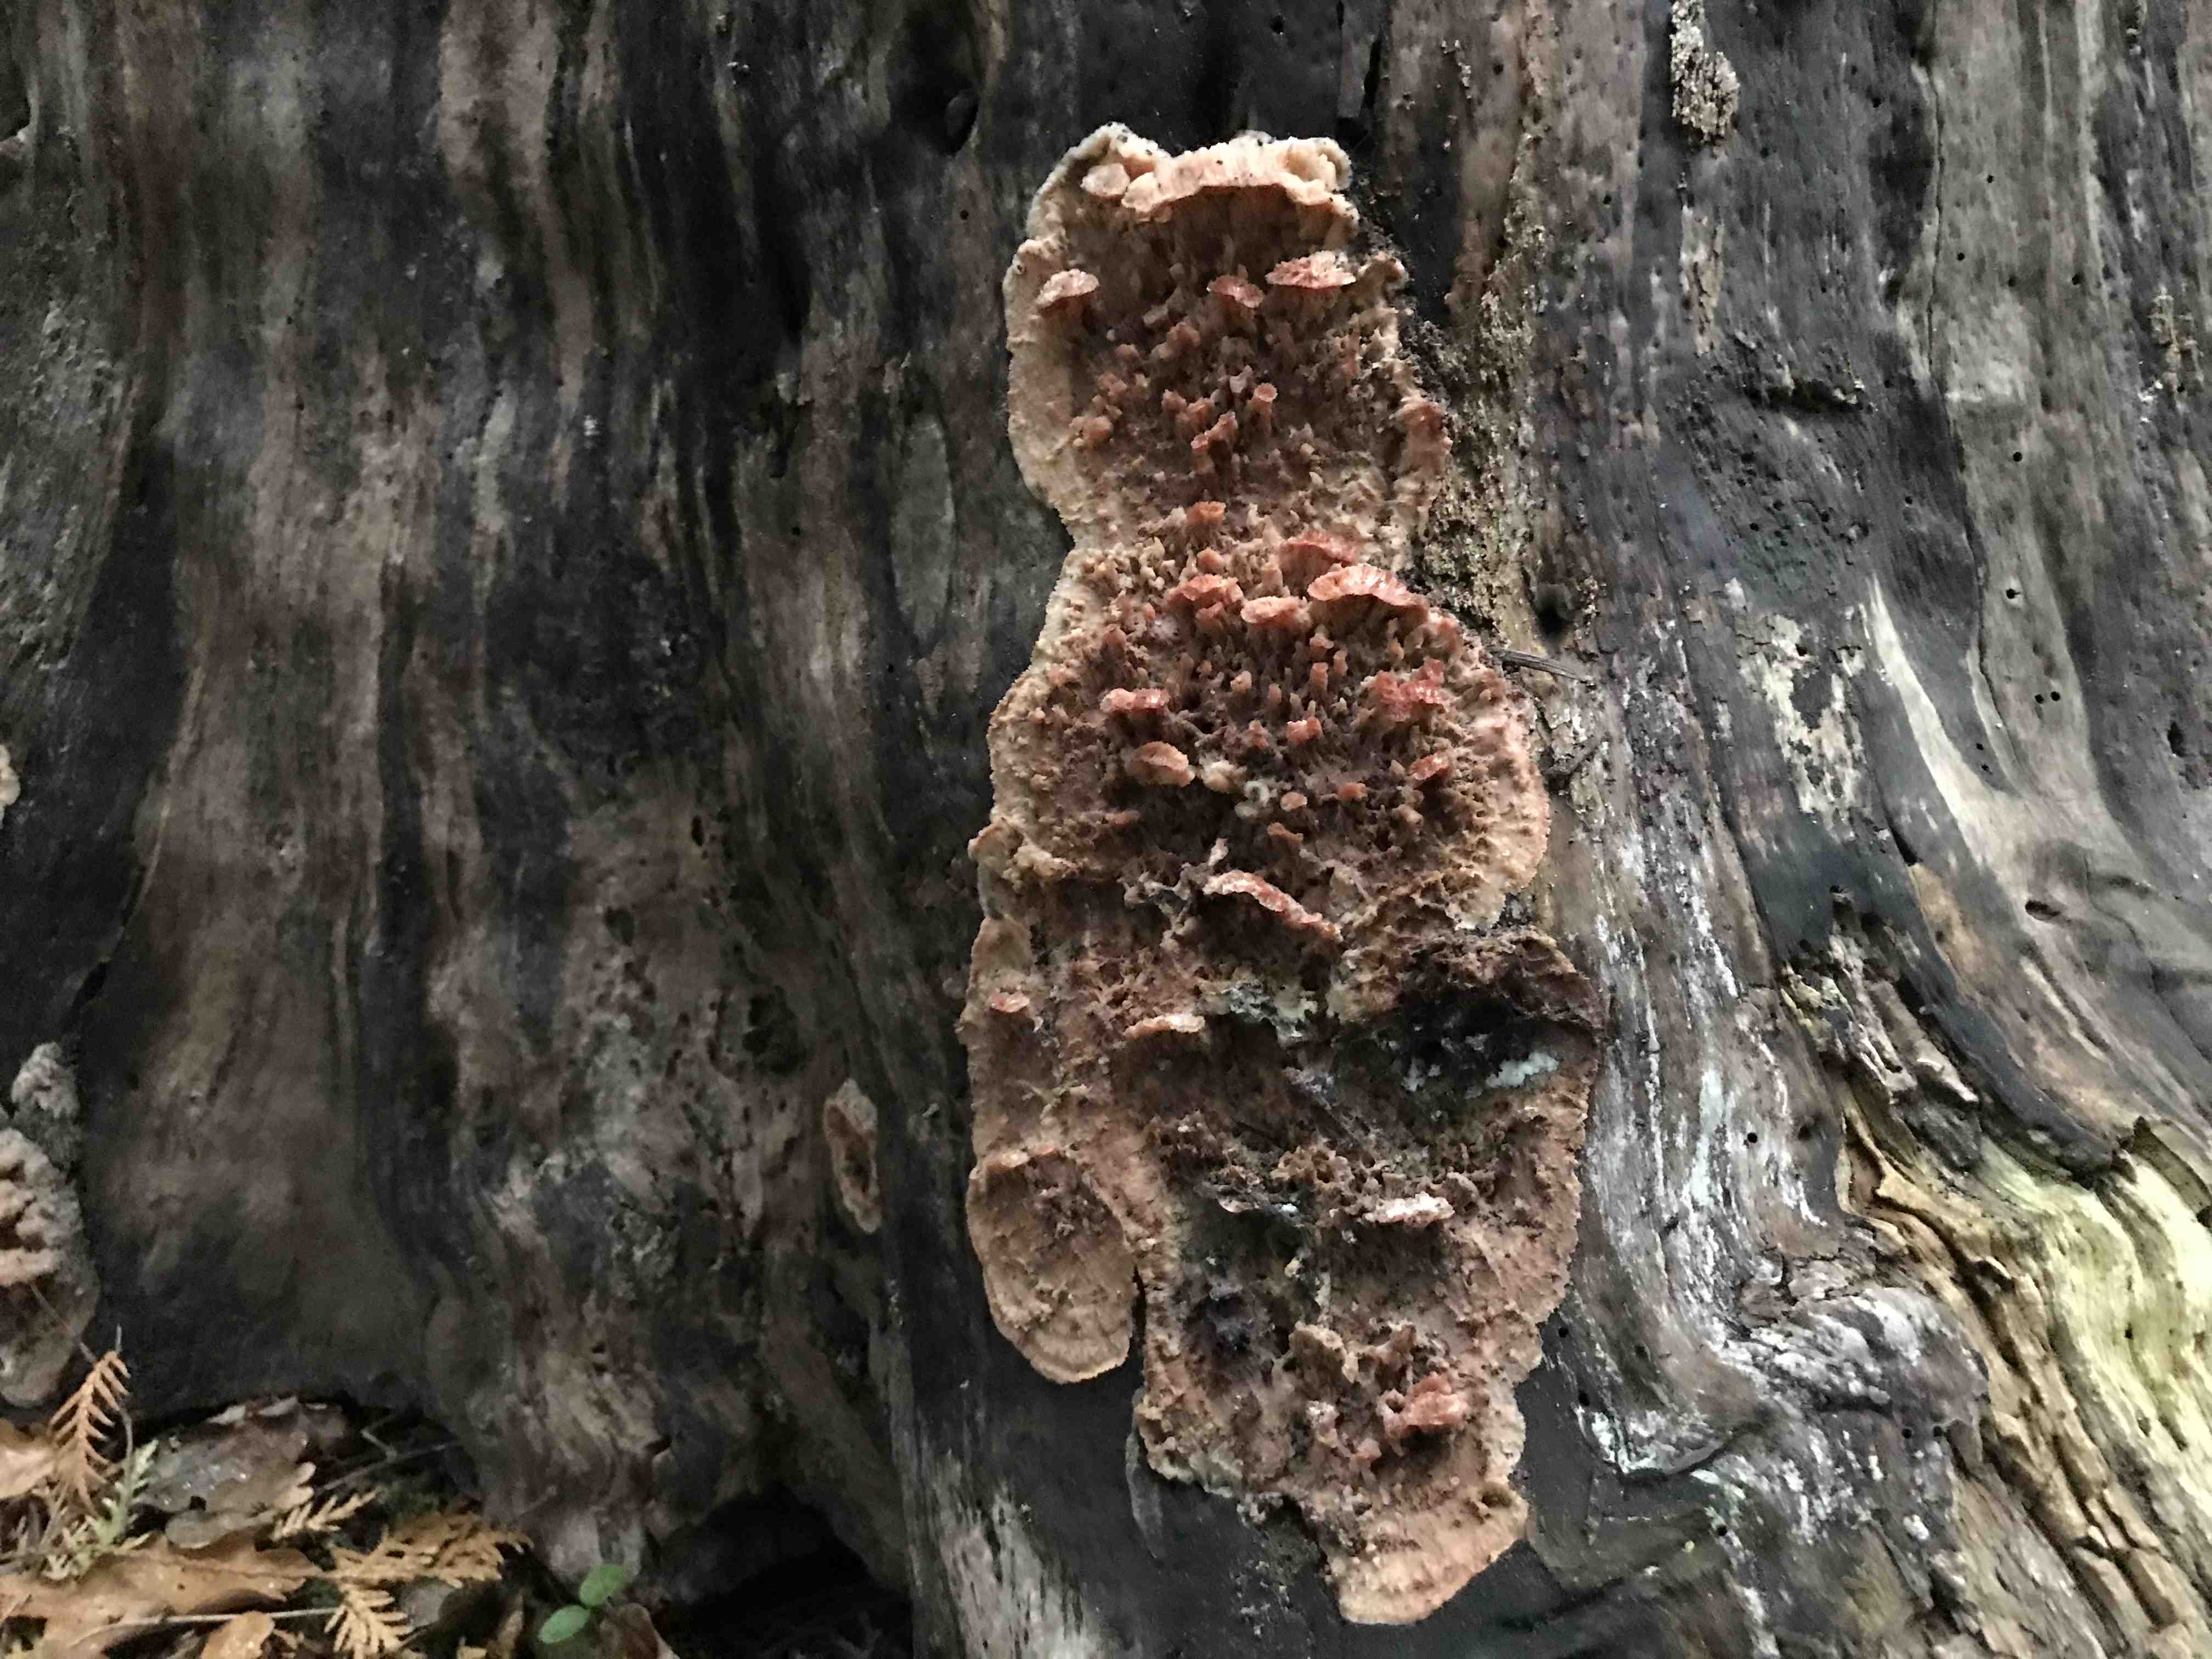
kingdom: Fungi
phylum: Basidiomycota
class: Agaricomycetes
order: Polyporales
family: Meruliaceae
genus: Phlebia
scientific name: Phlebia tremellosa
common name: bævrende åresvamp
